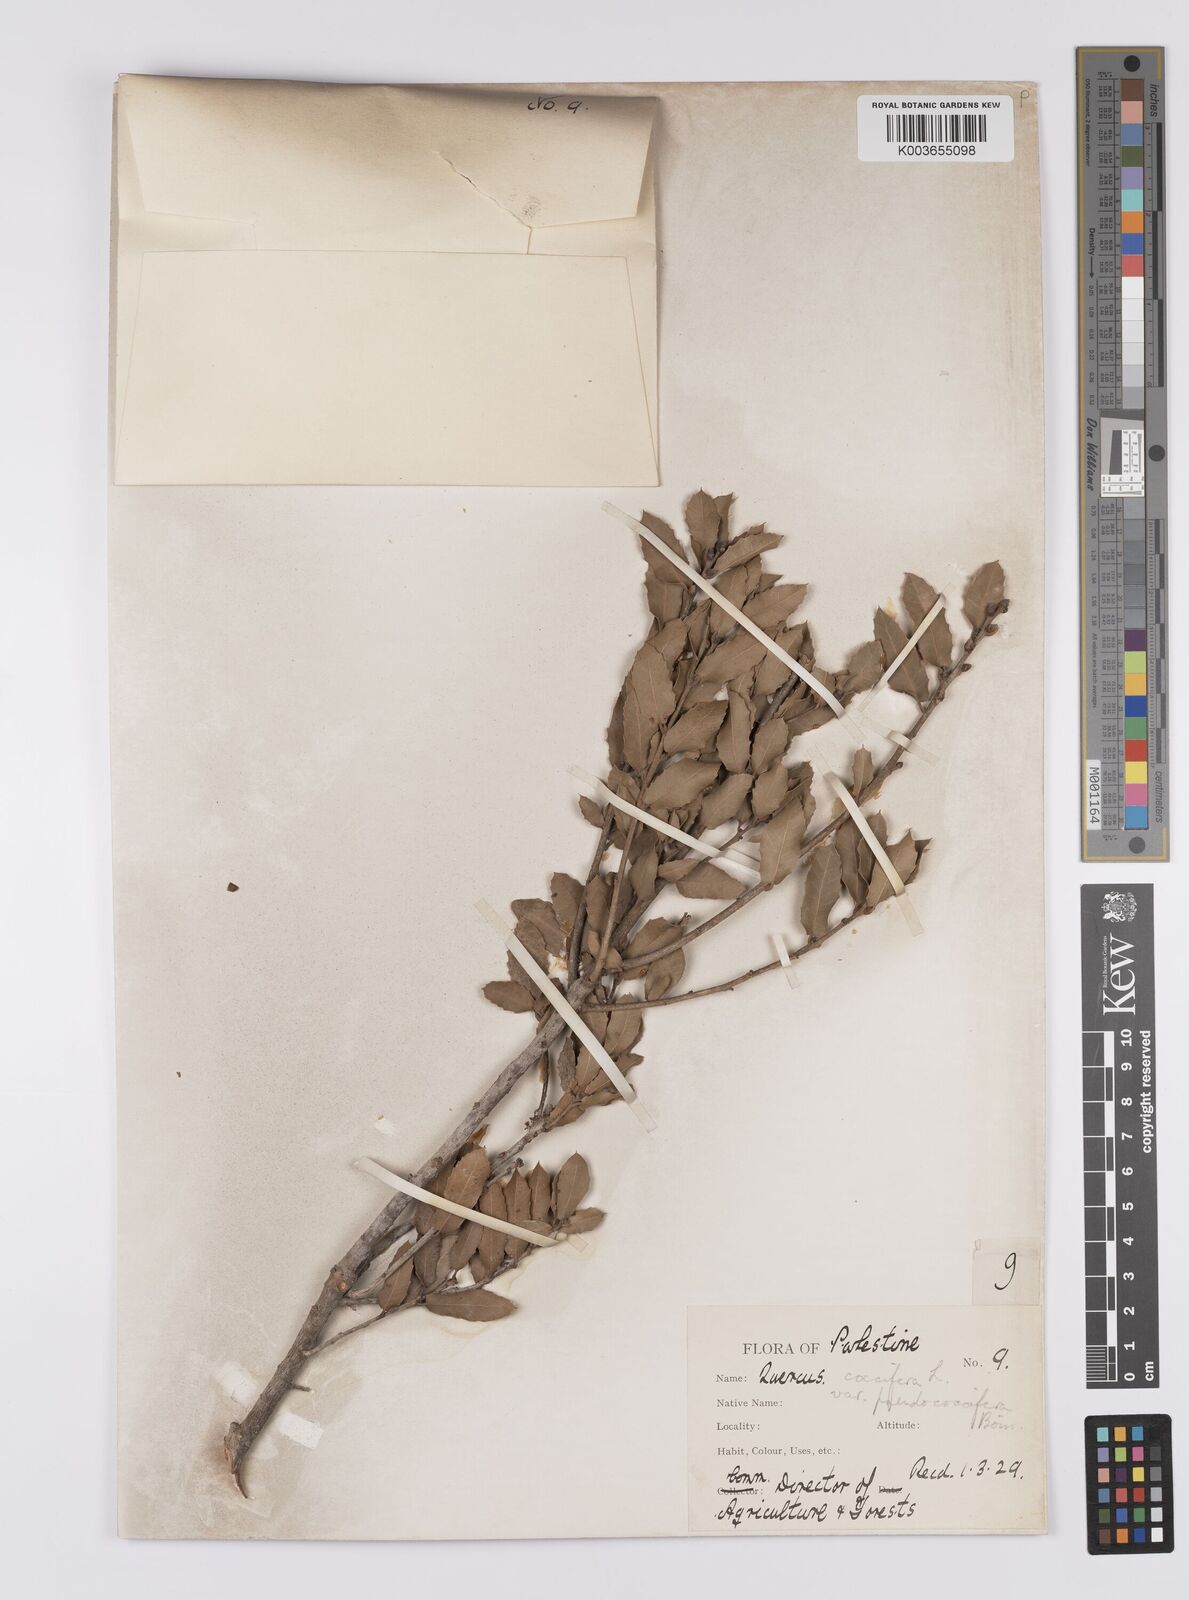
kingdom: Plantae
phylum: Tracheophyta
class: Magnoliopsida
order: Fagales
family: Fagaceae
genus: Quercus
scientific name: Quercus coccifera
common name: Kermes oak
